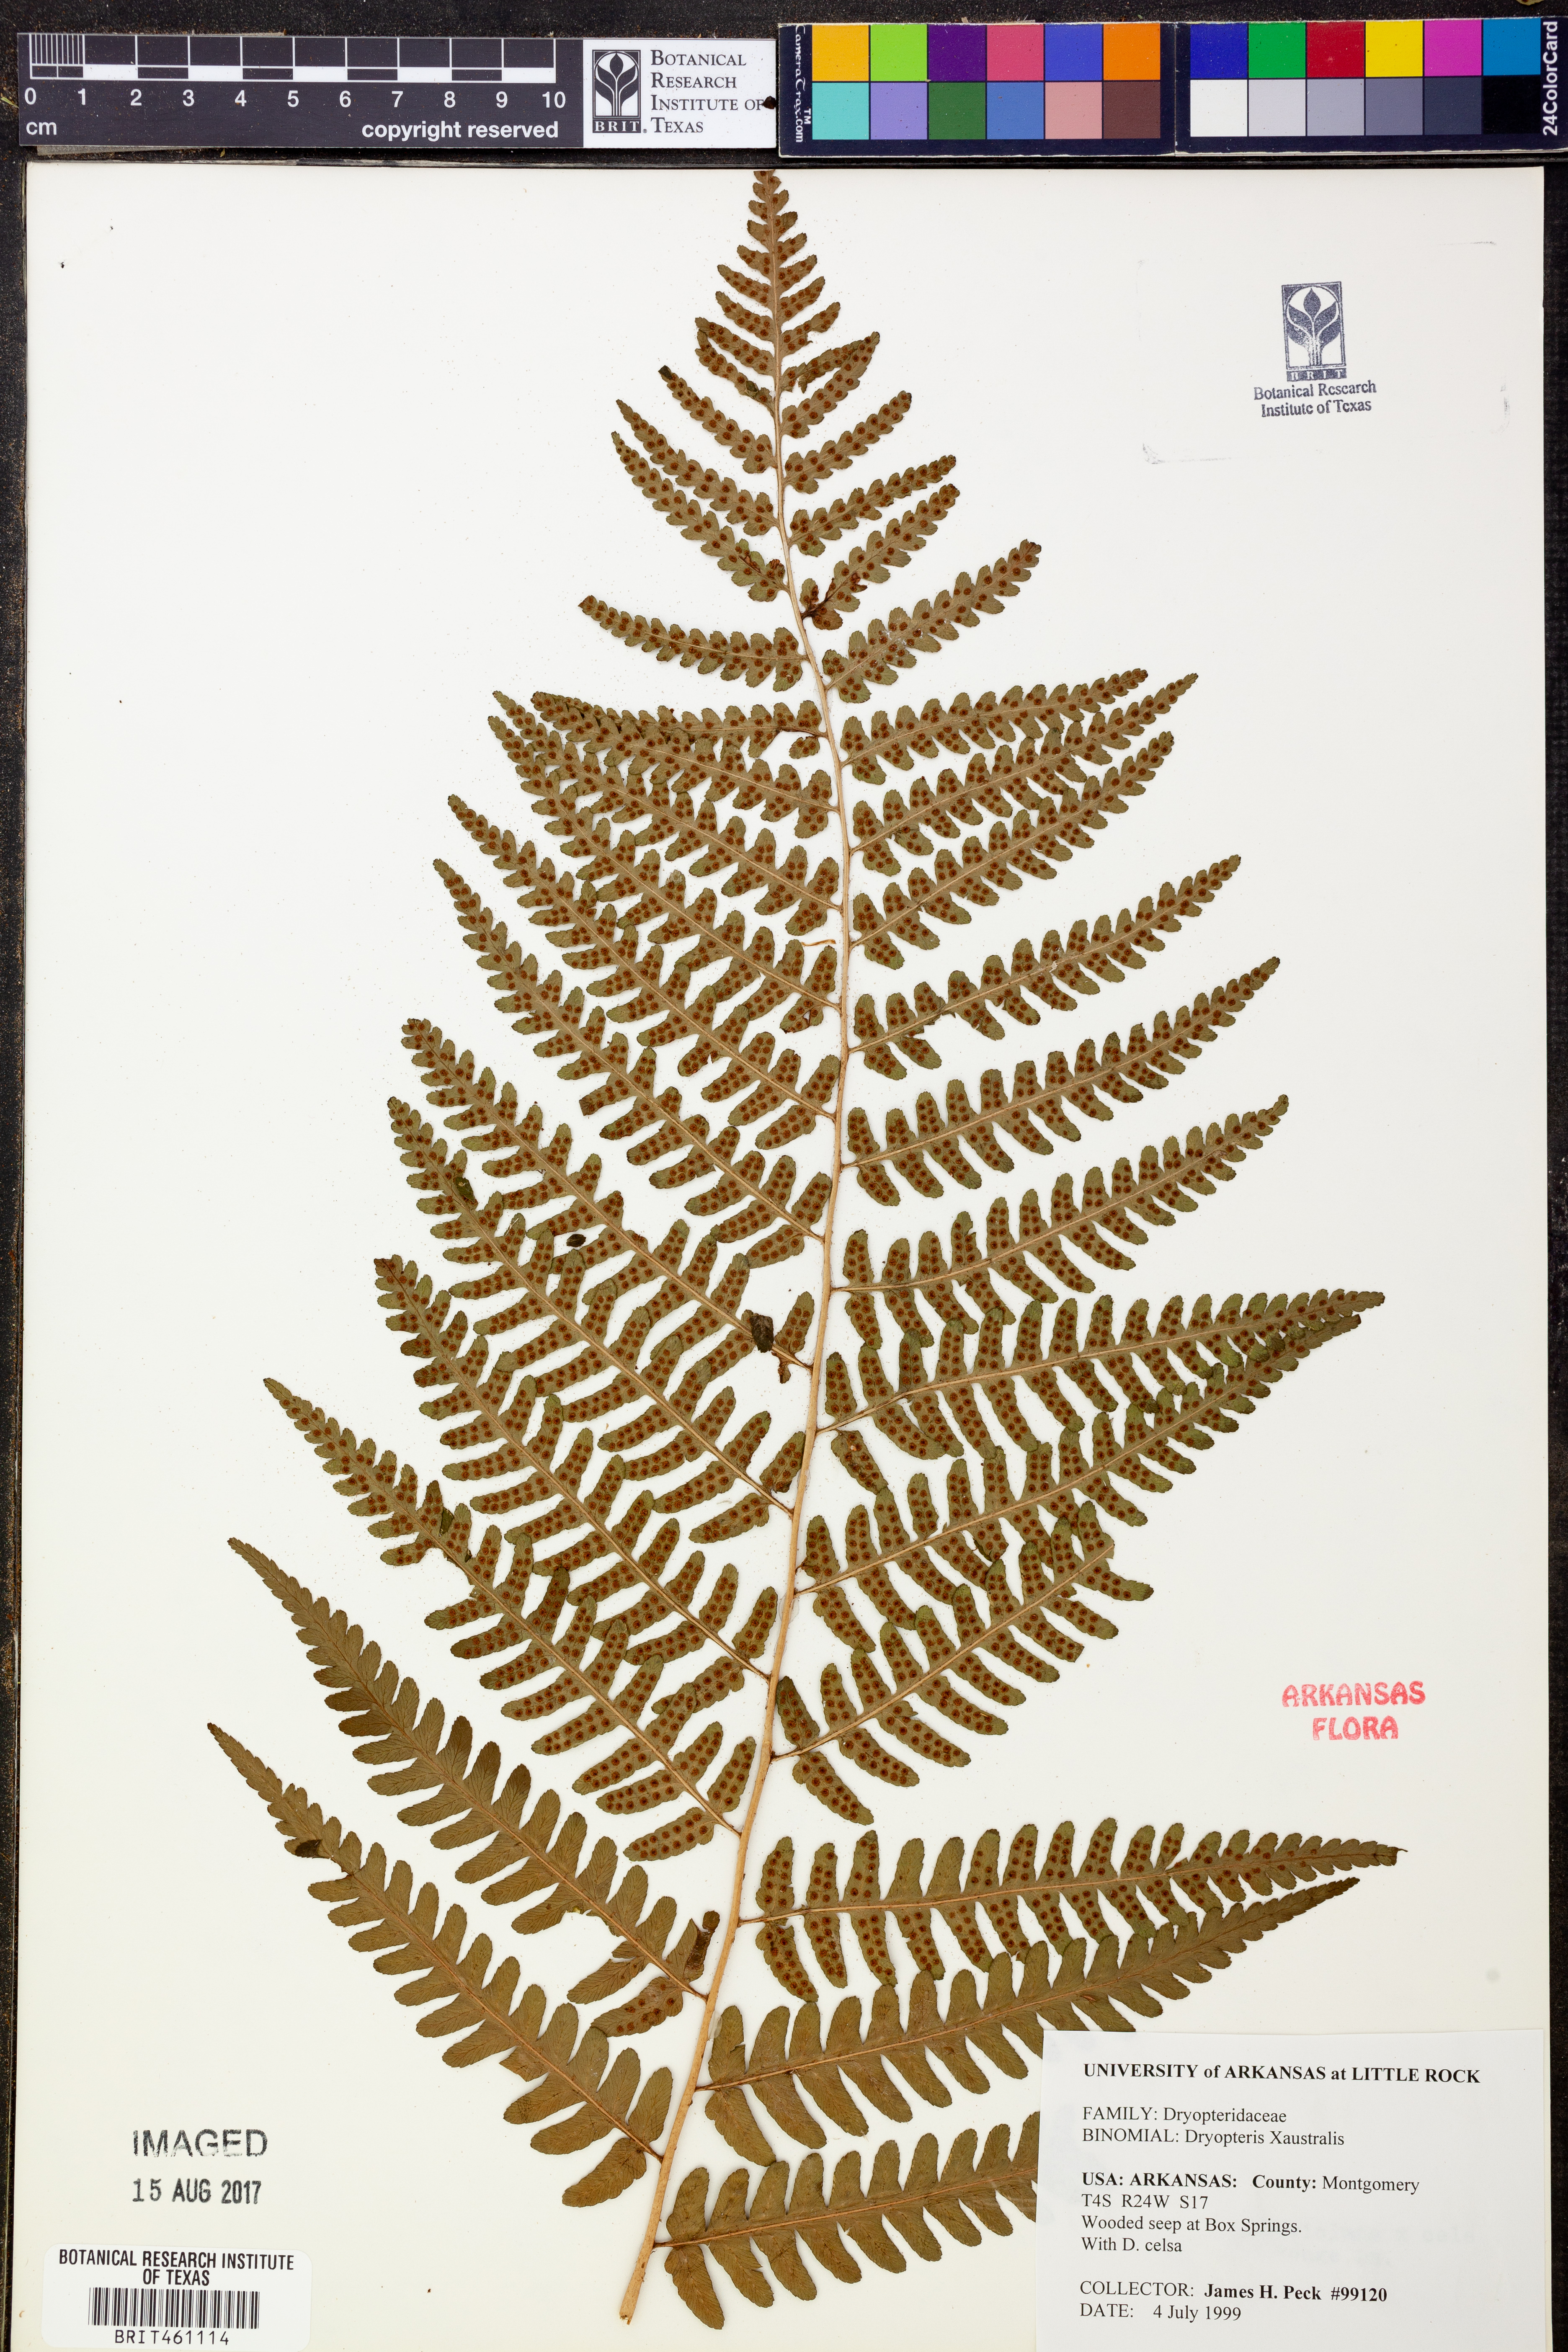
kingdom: Plantae
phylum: Tracheophyta
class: Polypodiopsida
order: Polypodiales
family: Dryopteridaceae
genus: Dryopteris
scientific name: Dryopteris
